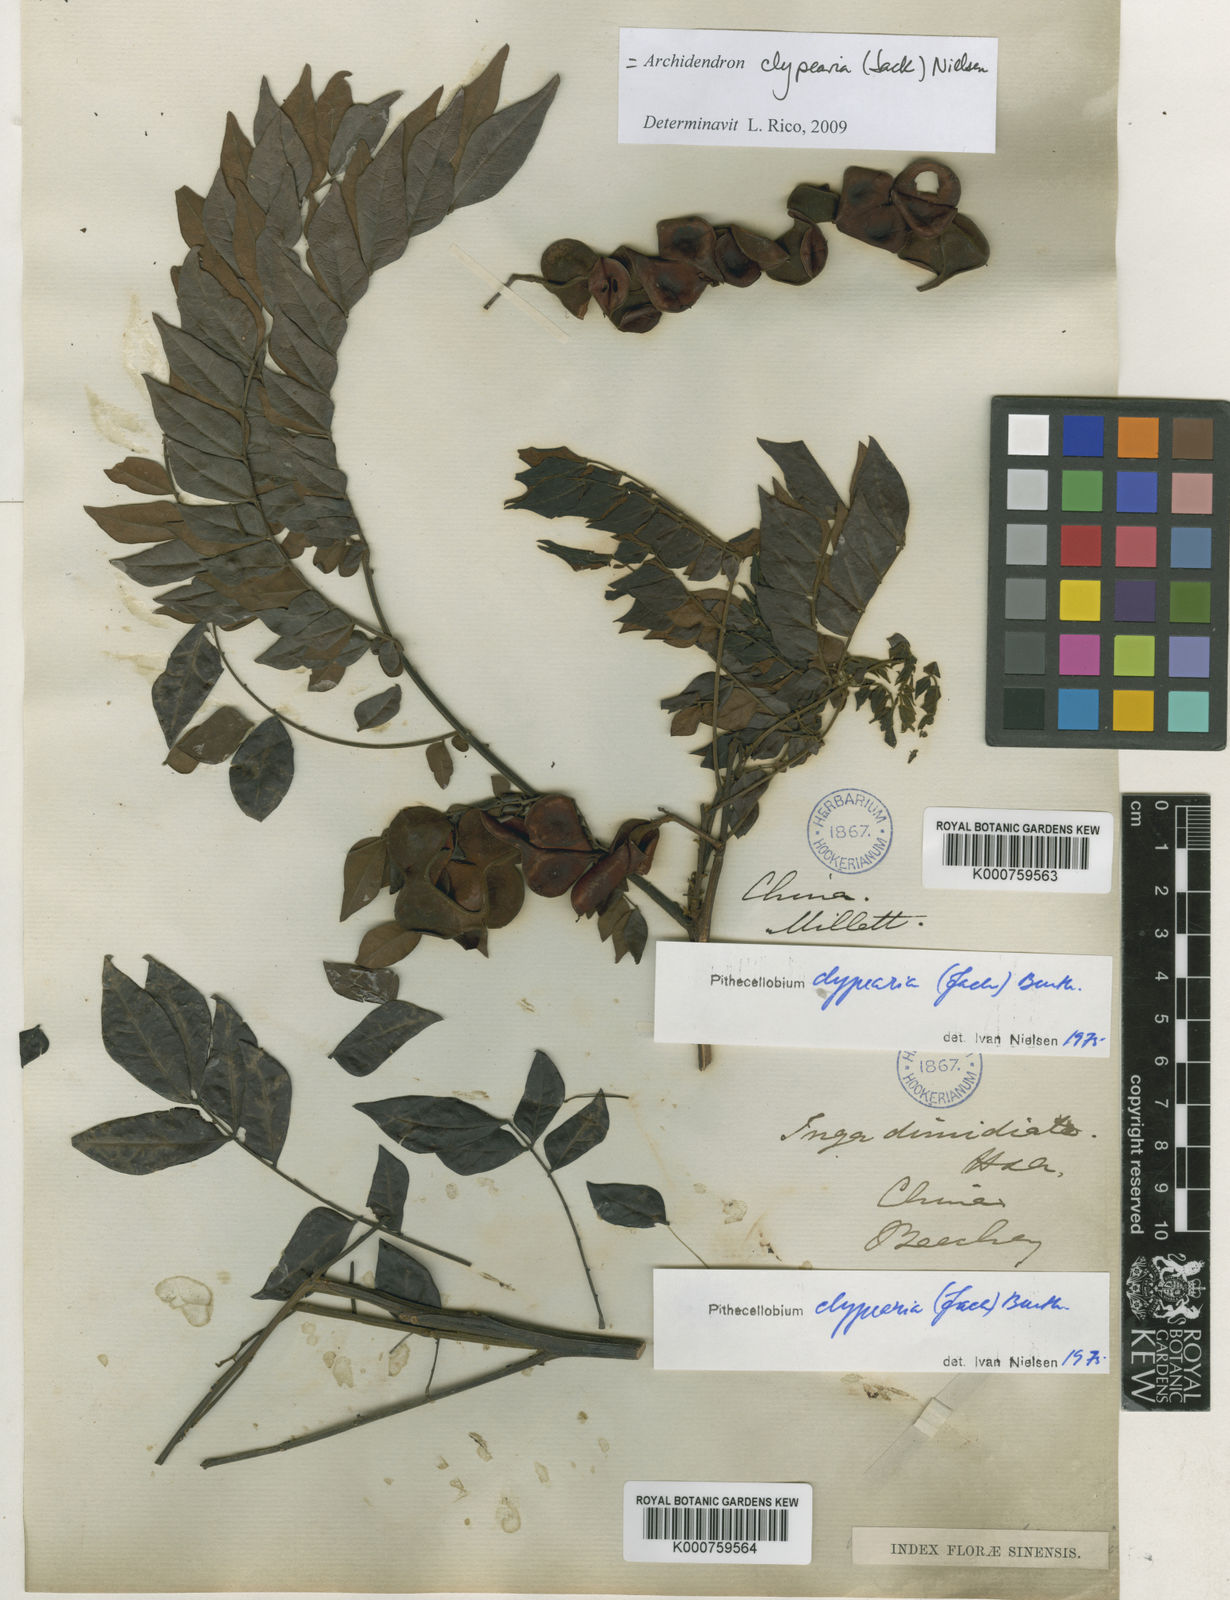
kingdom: Plantae
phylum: Tracheophyta
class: Magnoliopsida
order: Fabales
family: Fabaceae
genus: Archidendron
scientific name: Archidendron clypearia
